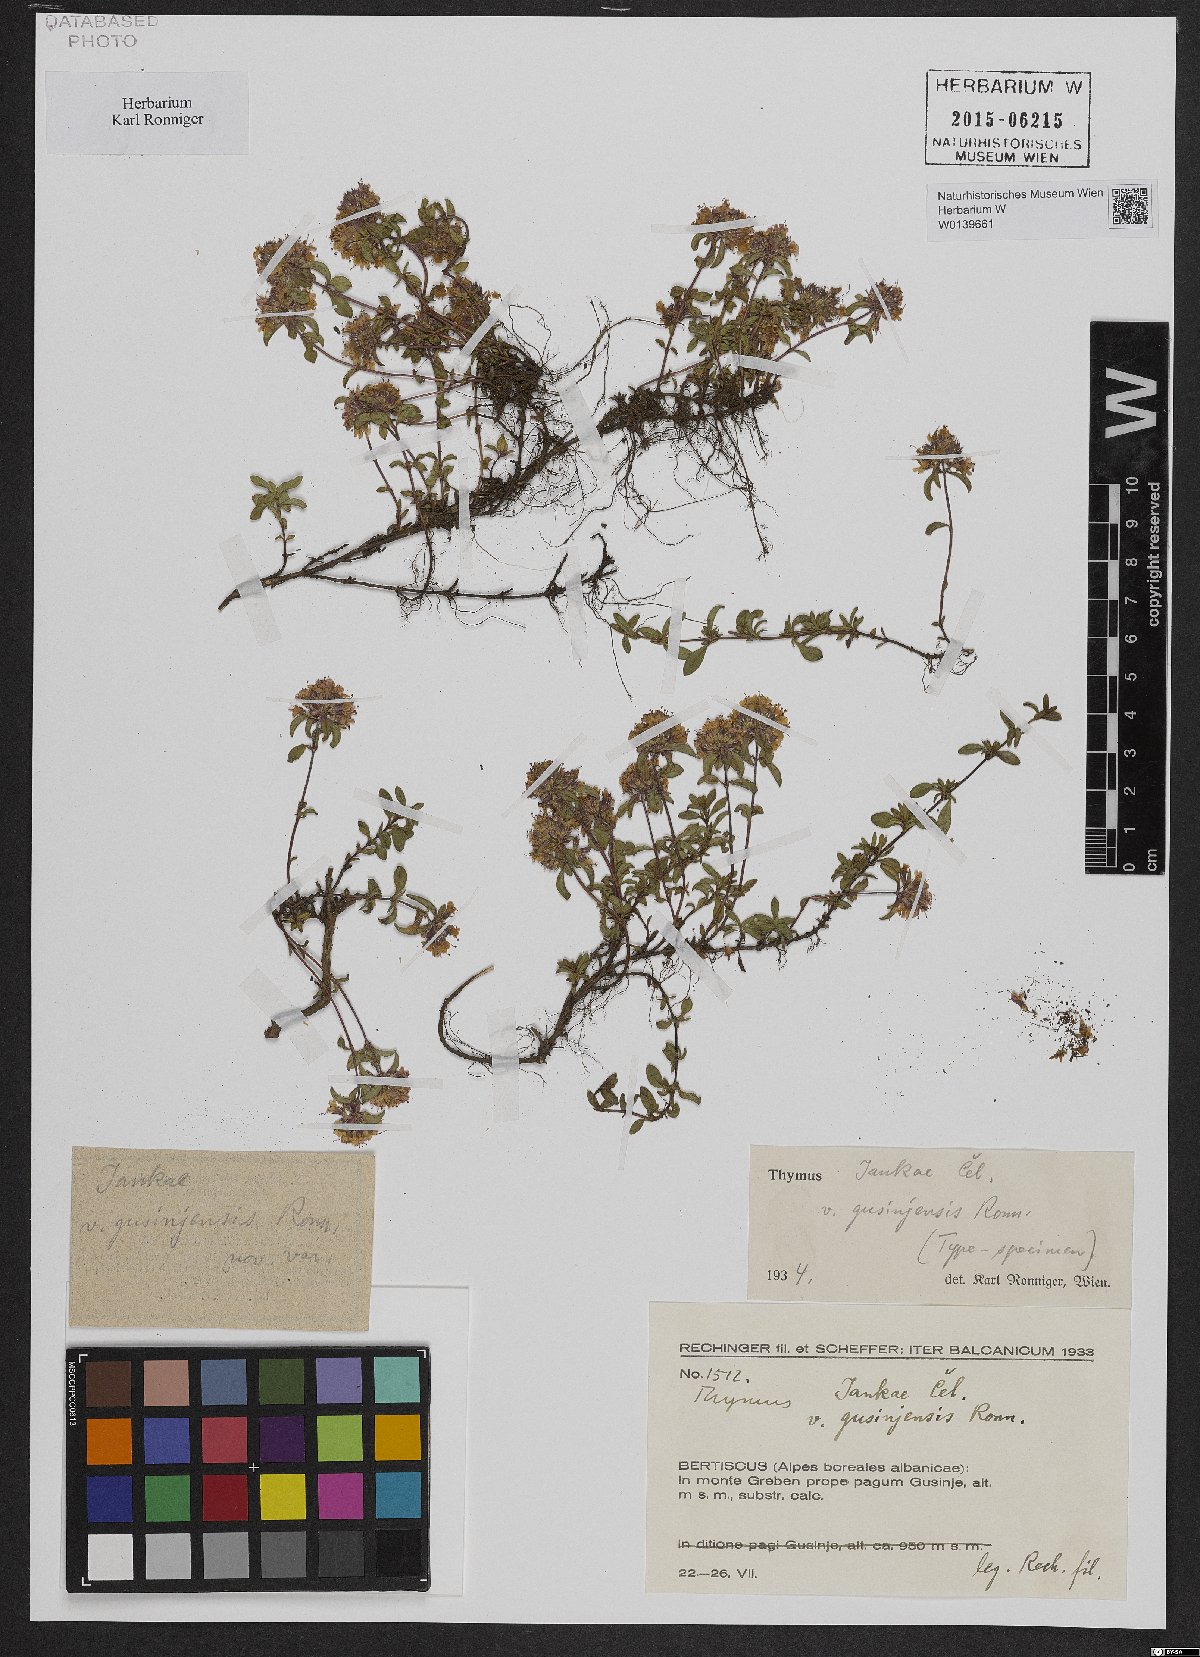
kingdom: Plantae
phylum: Tracheophyta
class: Magnoliopsida
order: Lamiales
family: Lamiaceae
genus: Thymus
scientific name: Thymus jankae
